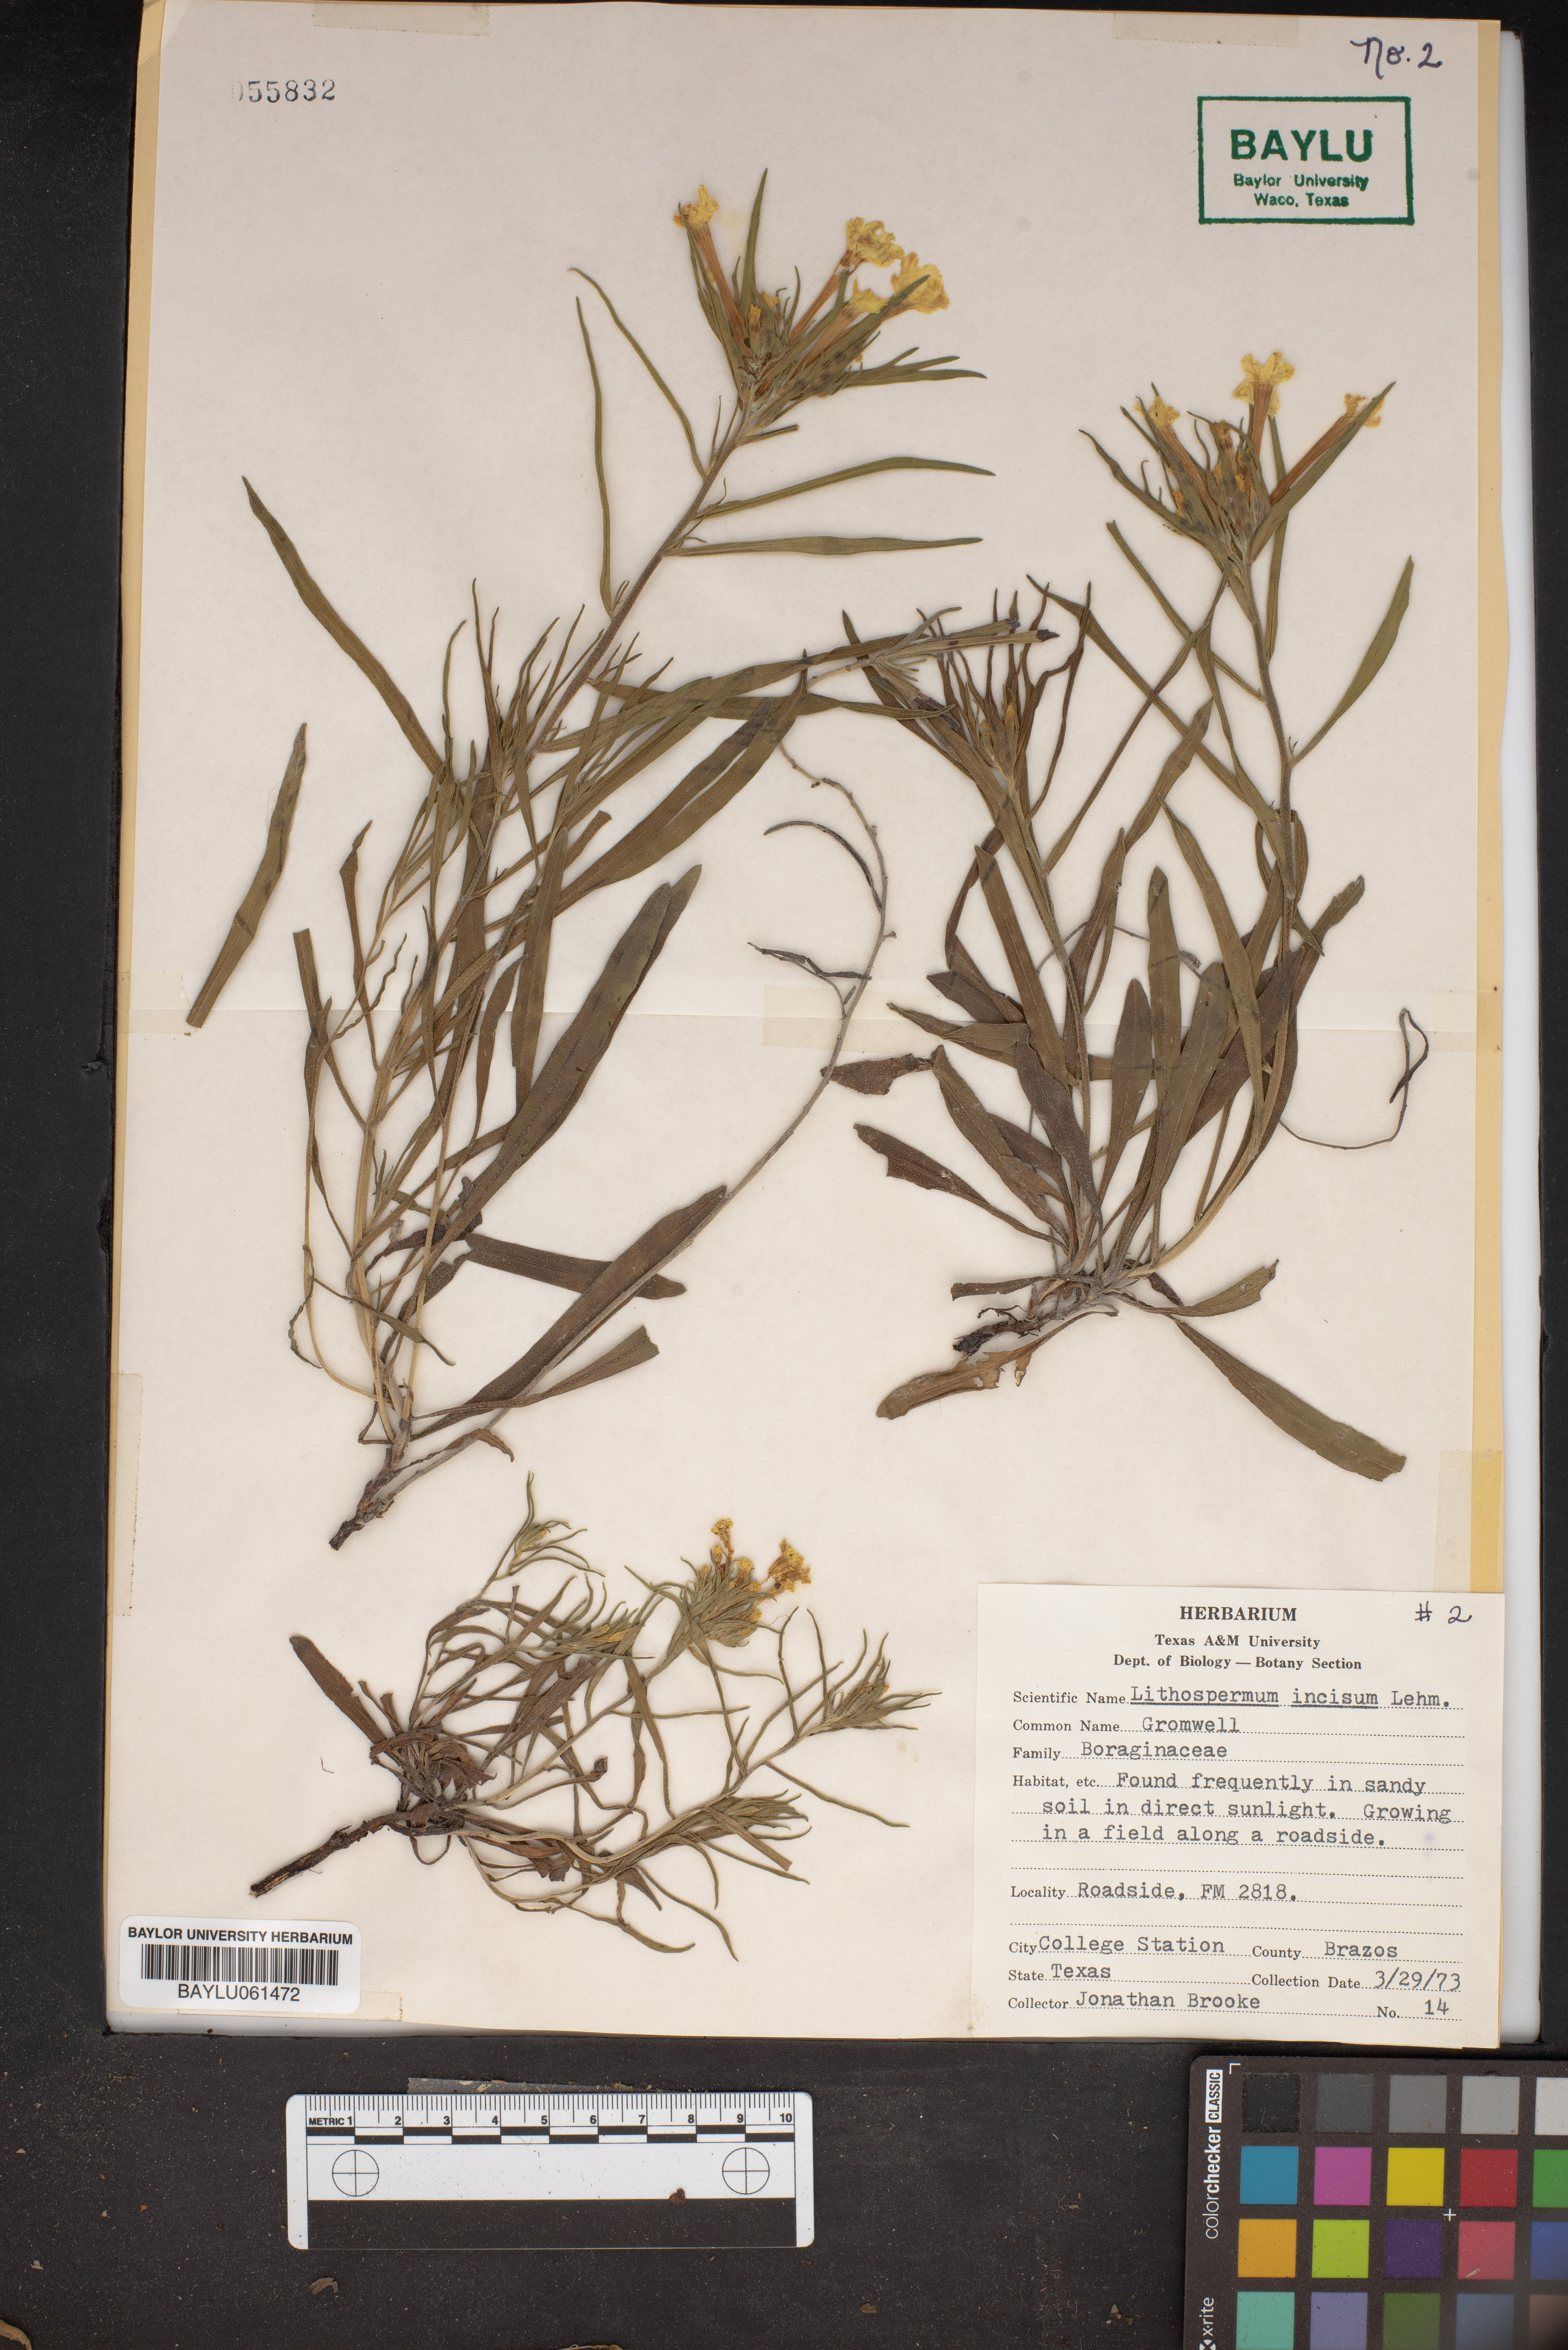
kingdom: Plantae
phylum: Tracheophyta
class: Magnoliopsida
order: Boraginales
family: Boraginaceae
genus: Lithospermum
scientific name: Lithospermum incisum
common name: Fringed gromwell
